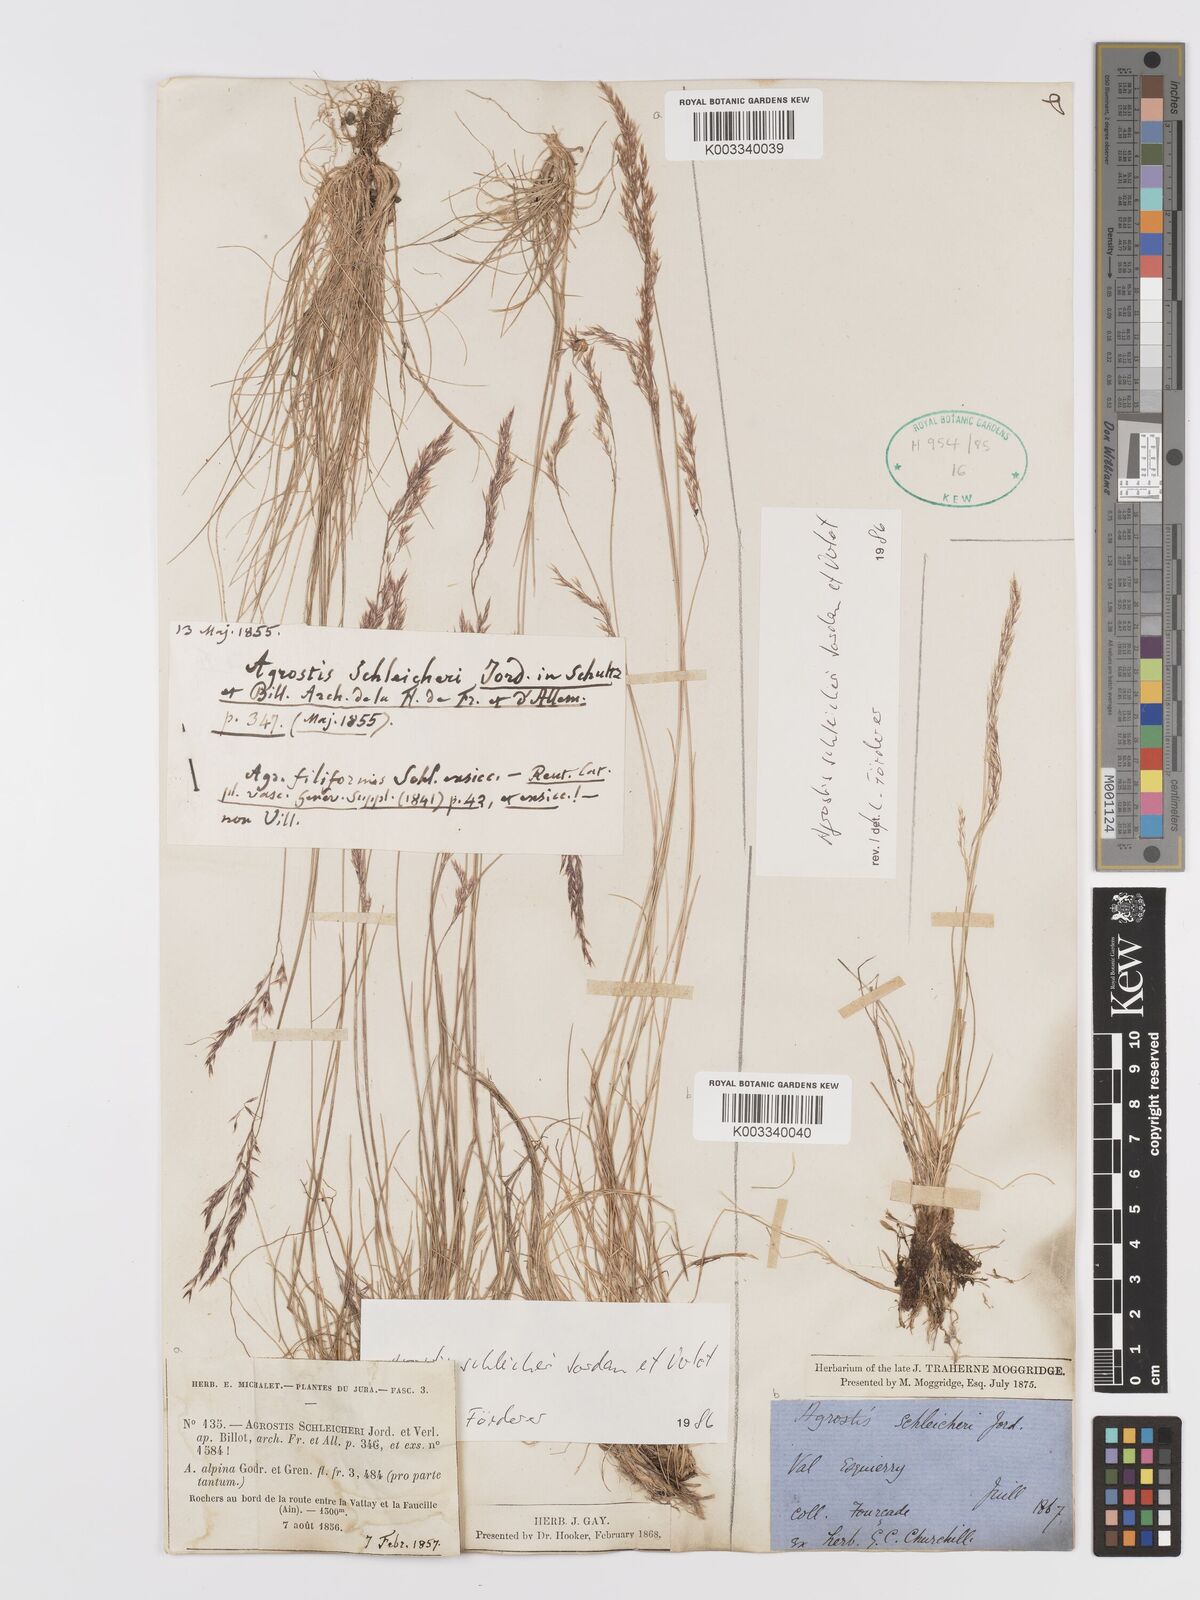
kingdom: Plantae
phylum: Tracheophyta
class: Liliopsida
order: Poales
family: Poaceae
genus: Alpagrostis
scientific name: Alpagrostis schleicheri
